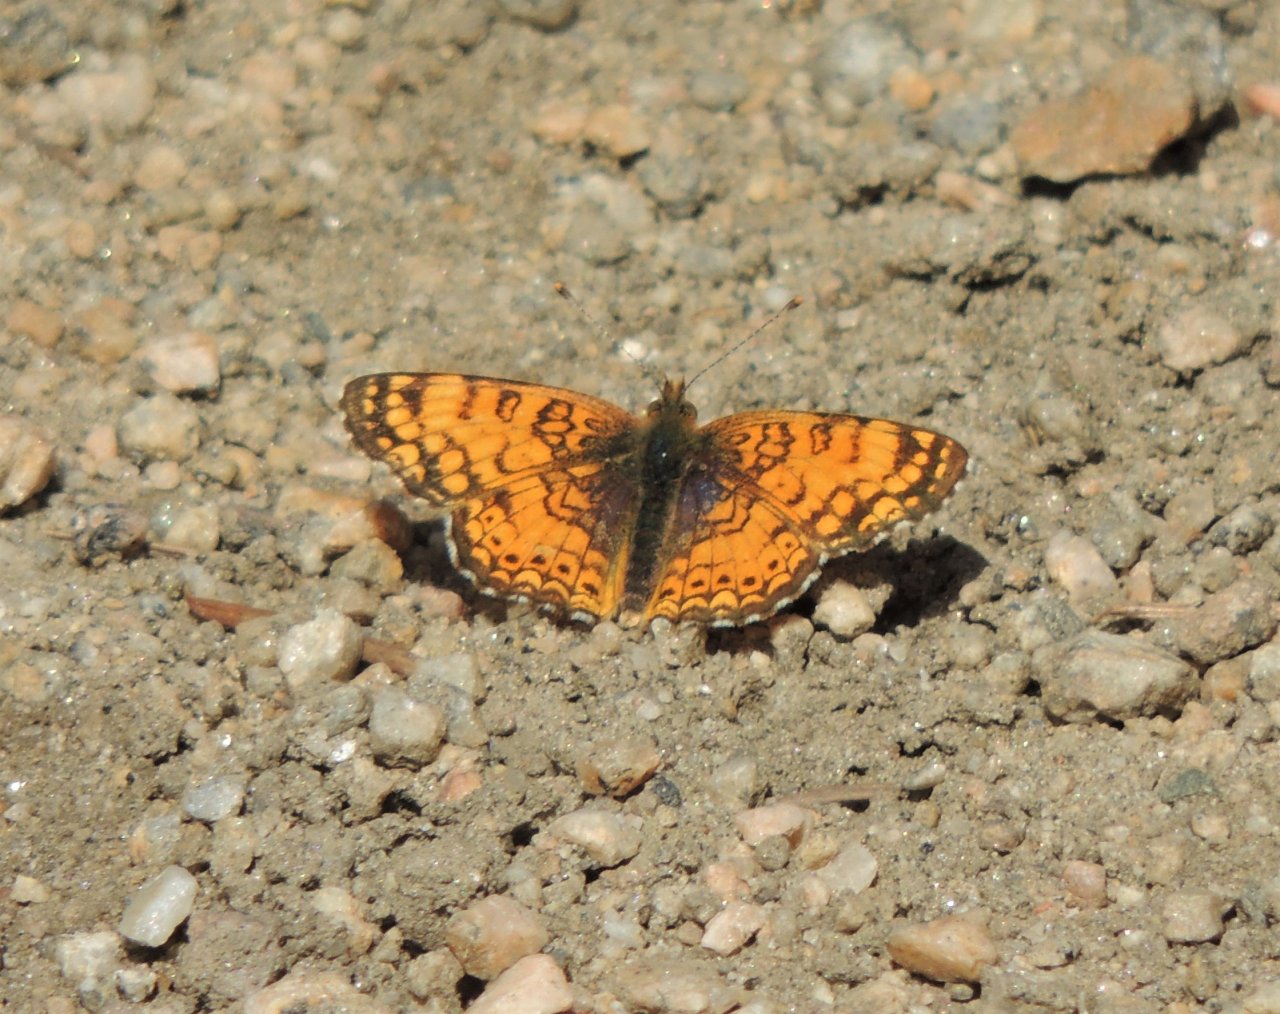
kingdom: Animalia
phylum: Arthropoda
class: Insecta
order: Lepidoptera
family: Nymphalidae
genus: Eresia
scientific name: Eresia aveyrona
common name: Mylitta Crescent
